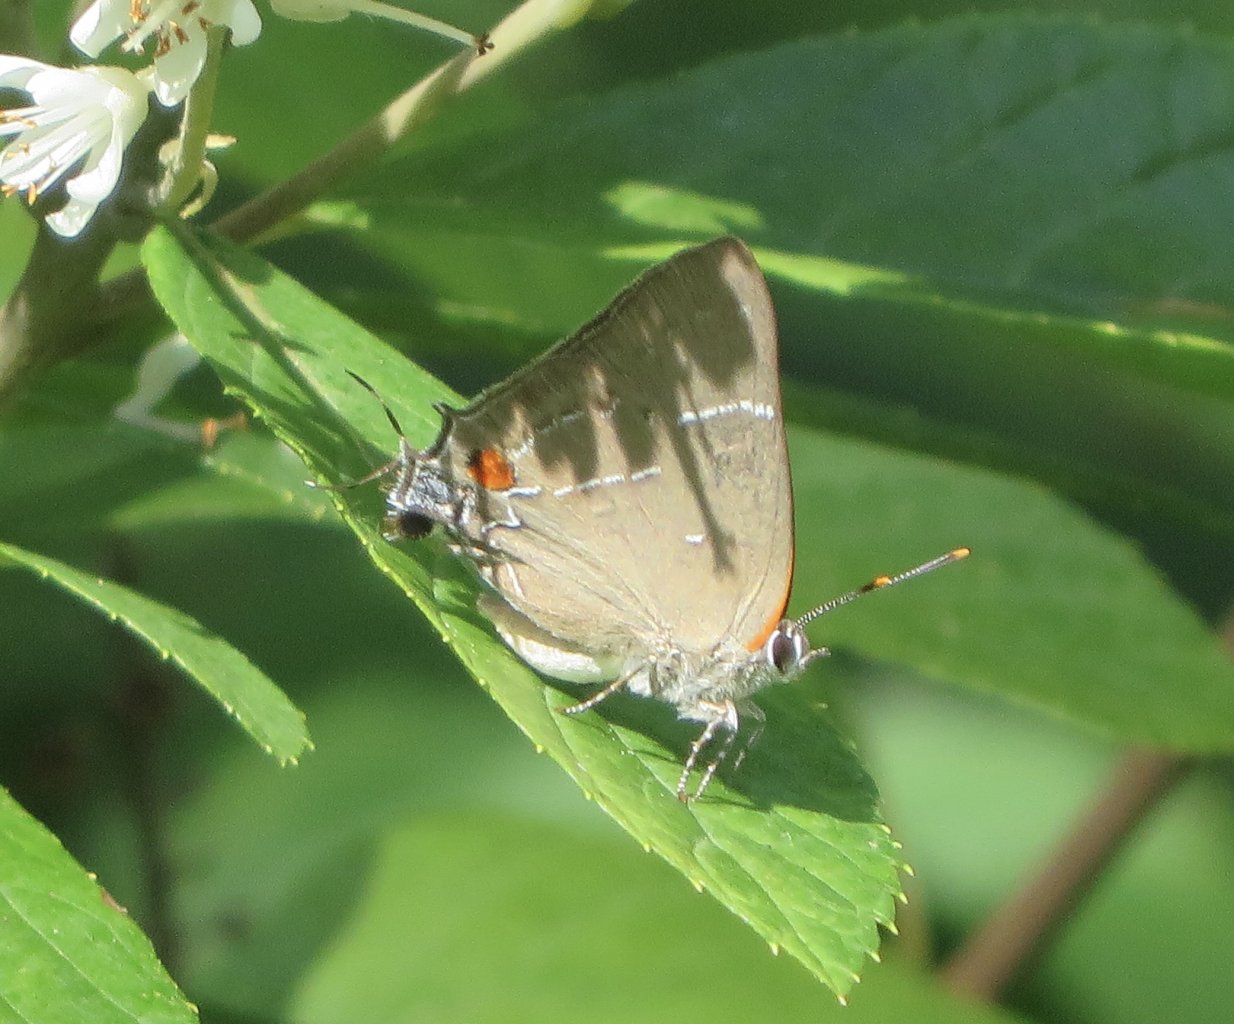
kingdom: Animalia
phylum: Arthropoda
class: Insecta
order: Lepidoptera
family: Lycaenidae
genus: Parrhasius
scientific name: Parrhasius m-album
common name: White-m Hairstreak
